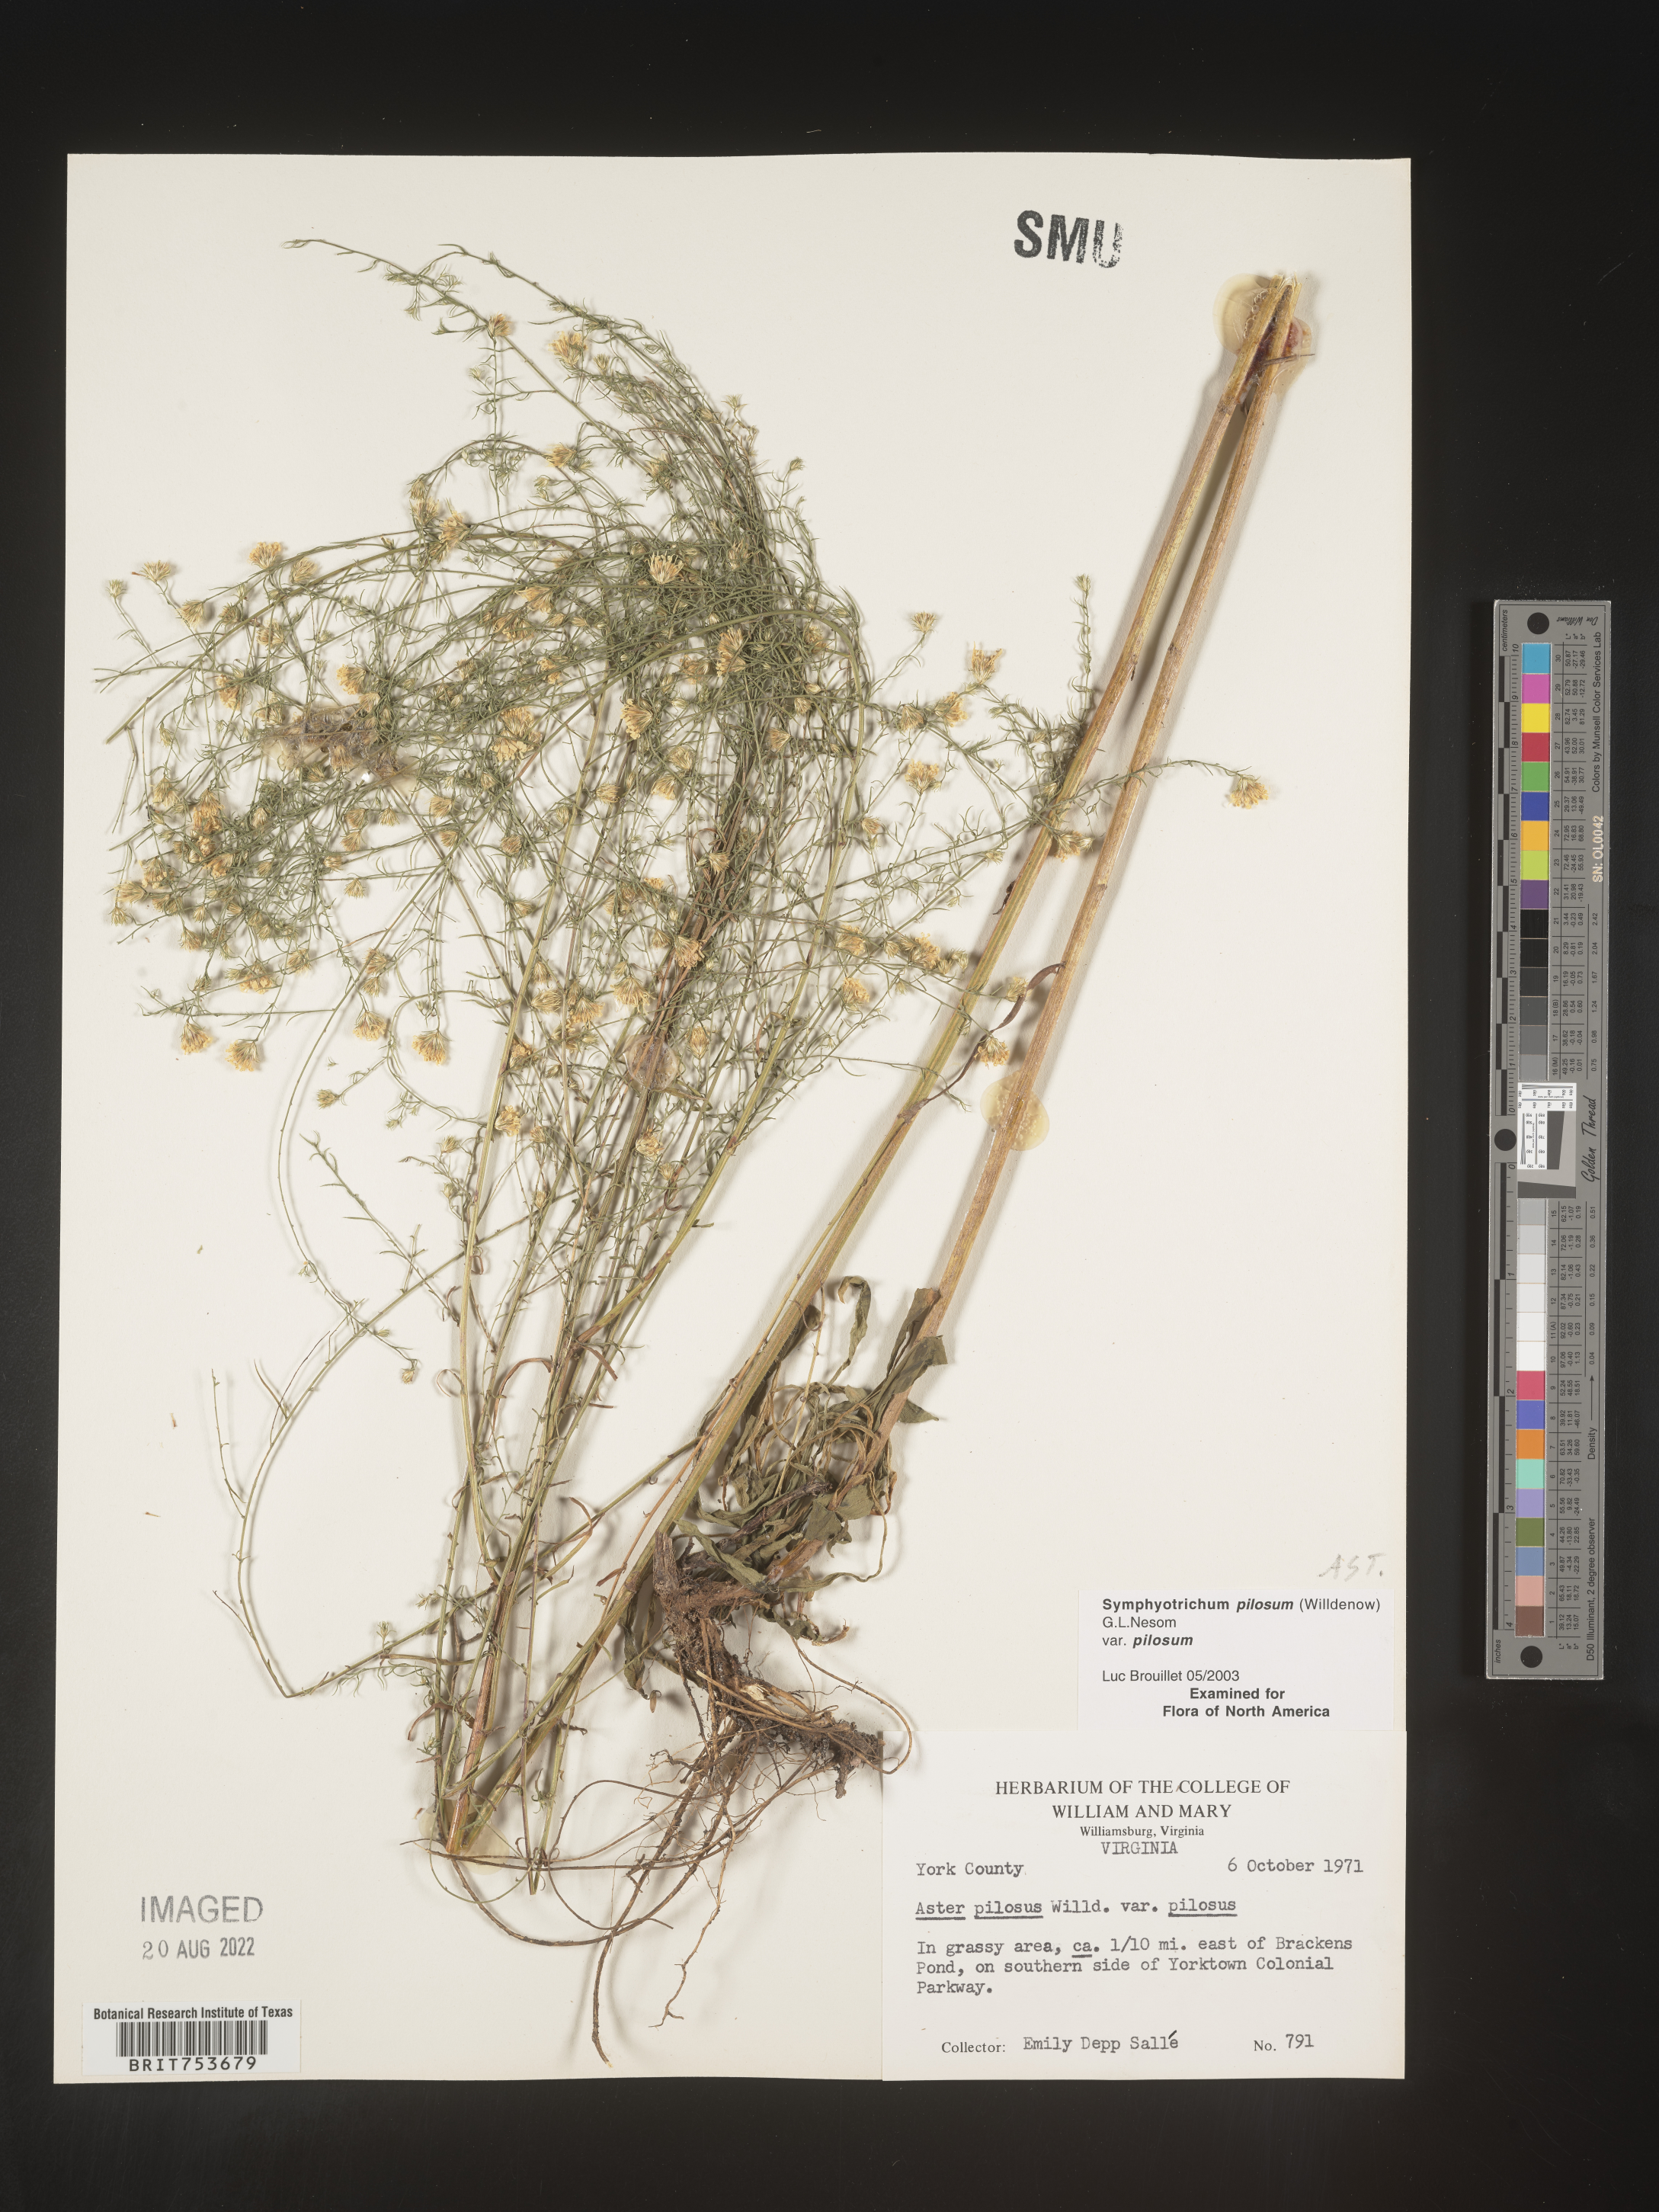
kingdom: Plantae
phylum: Tracheophyta
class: Magnoliopsida
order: Asterales
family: Asteraceae
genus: Symphyotrichum
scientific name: Symphyotrichum pilosum
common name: Awl aster
